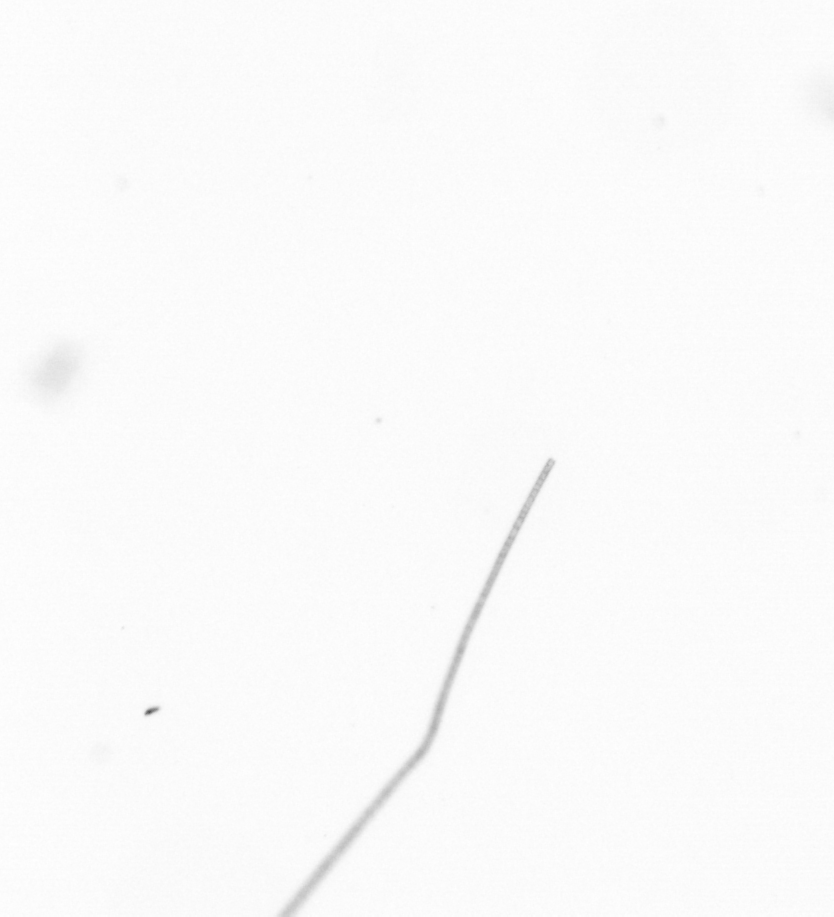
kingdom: Chromista
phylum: Ochrophyta
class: Bacillariophyceae
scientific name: Bacillariophyceae
